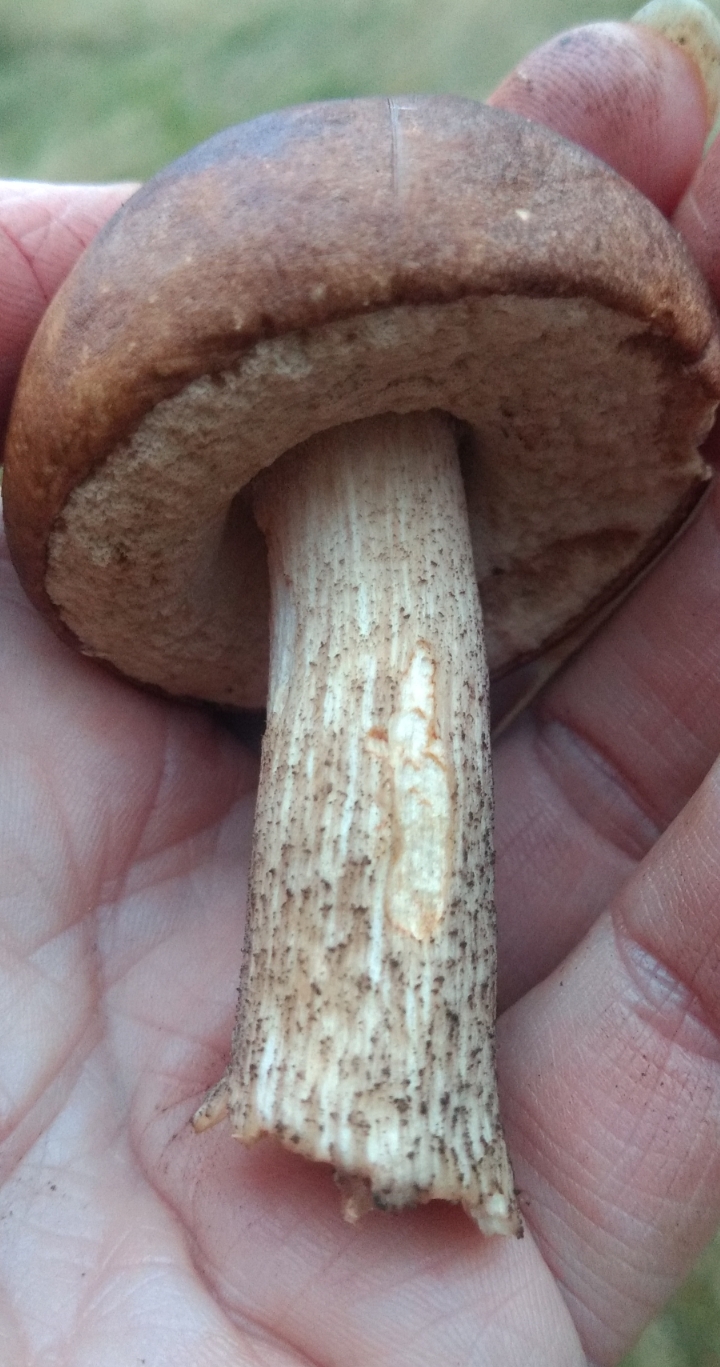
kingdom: Fungi
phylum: Basidiomycota
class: Agaricomycetes
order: Boletales
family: Boletaceae
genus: Leccinum
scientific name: Leccinum scabrum
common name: brun skælrørhat
